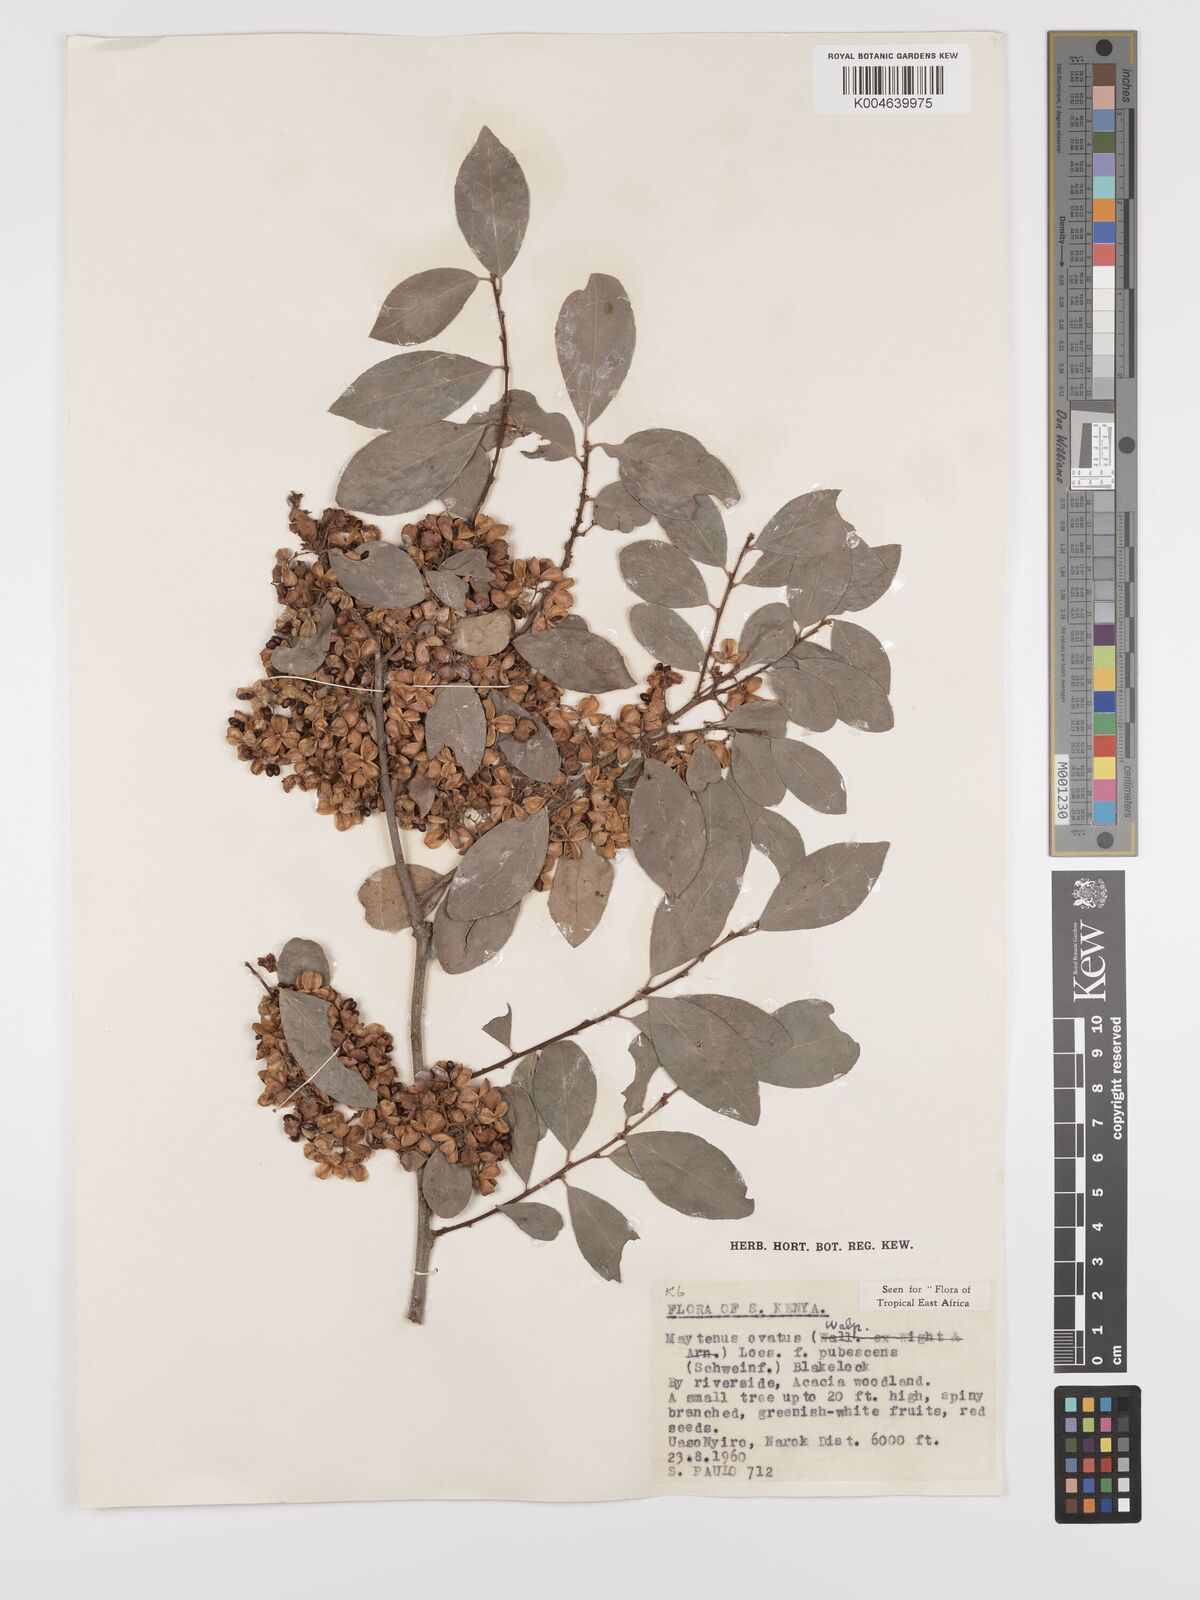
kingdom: Plantae
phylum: Tracheophyta
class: Magnoliopsida
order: Celastrales
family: Celastraceae
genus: Gymnosporia
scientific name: Gymnosporia arbutifolia
